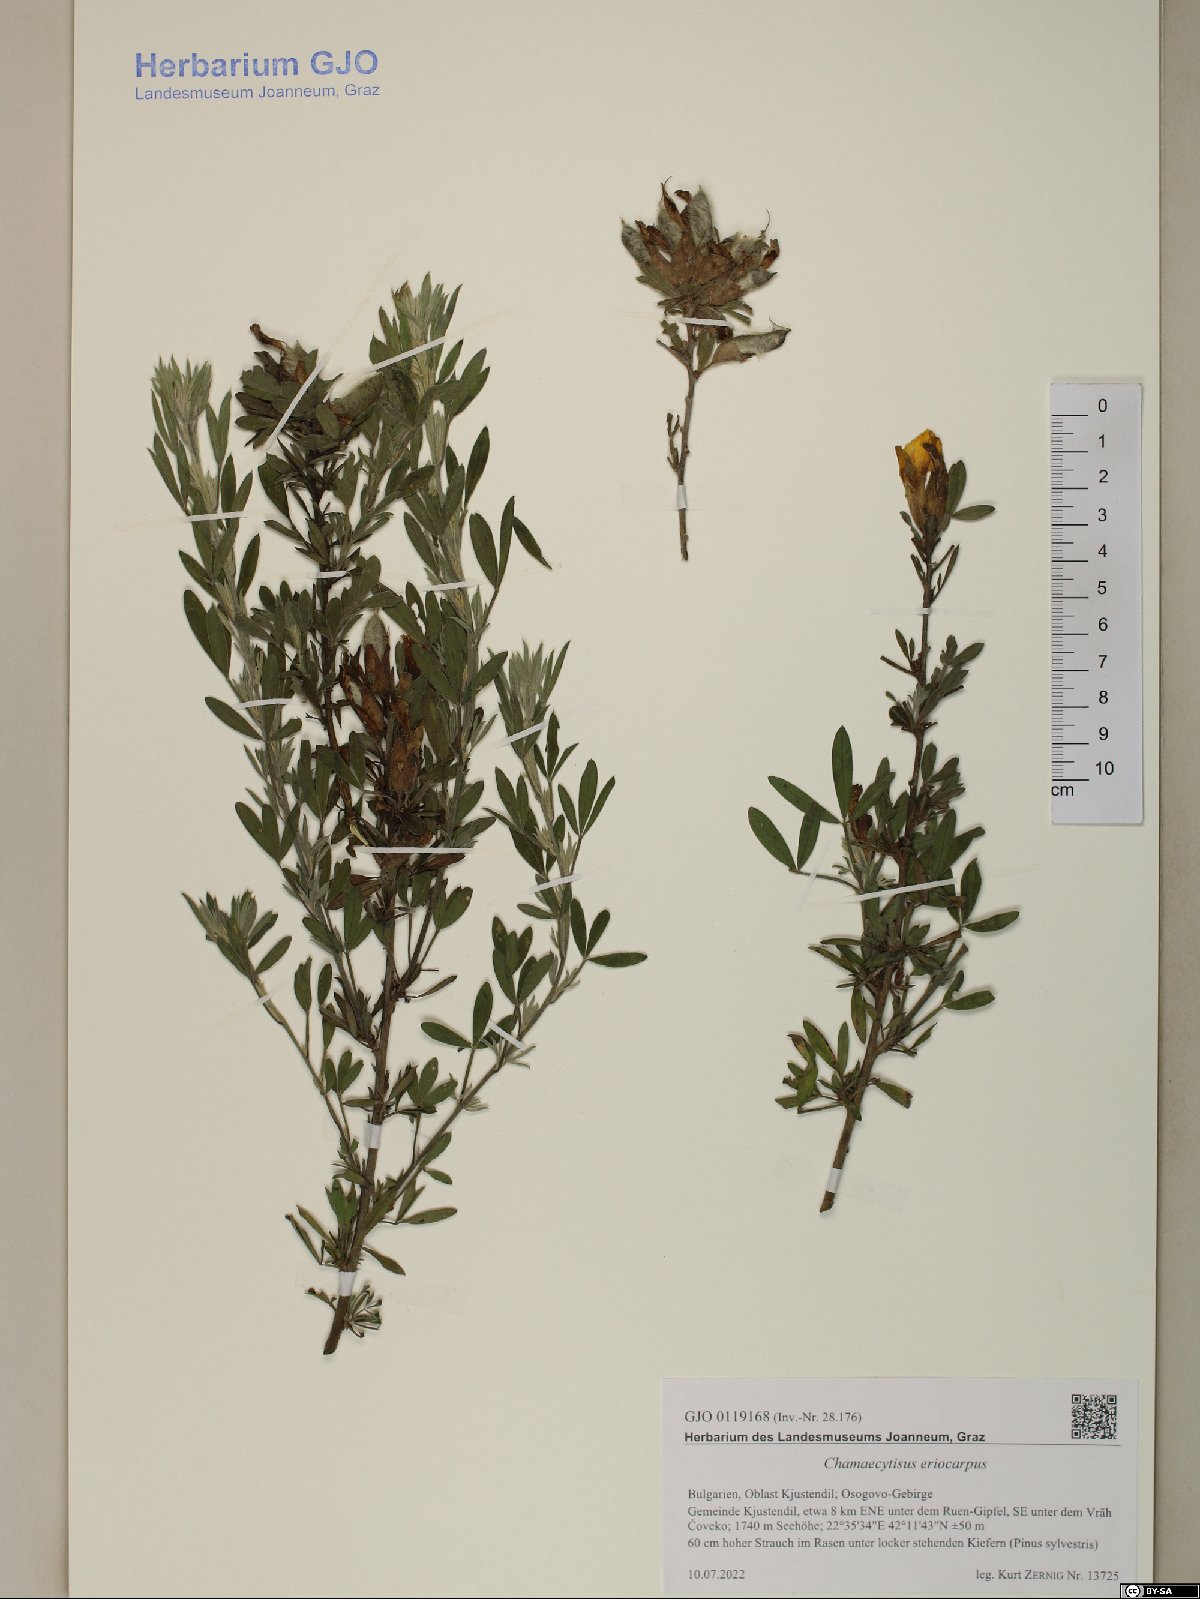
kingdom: Plantae
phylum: Tracheophyta
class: Magnoliopsida
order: Fabales
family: Fabaceae
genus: Chamaecytisus
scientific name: Chamaecytisus eriocarpus
